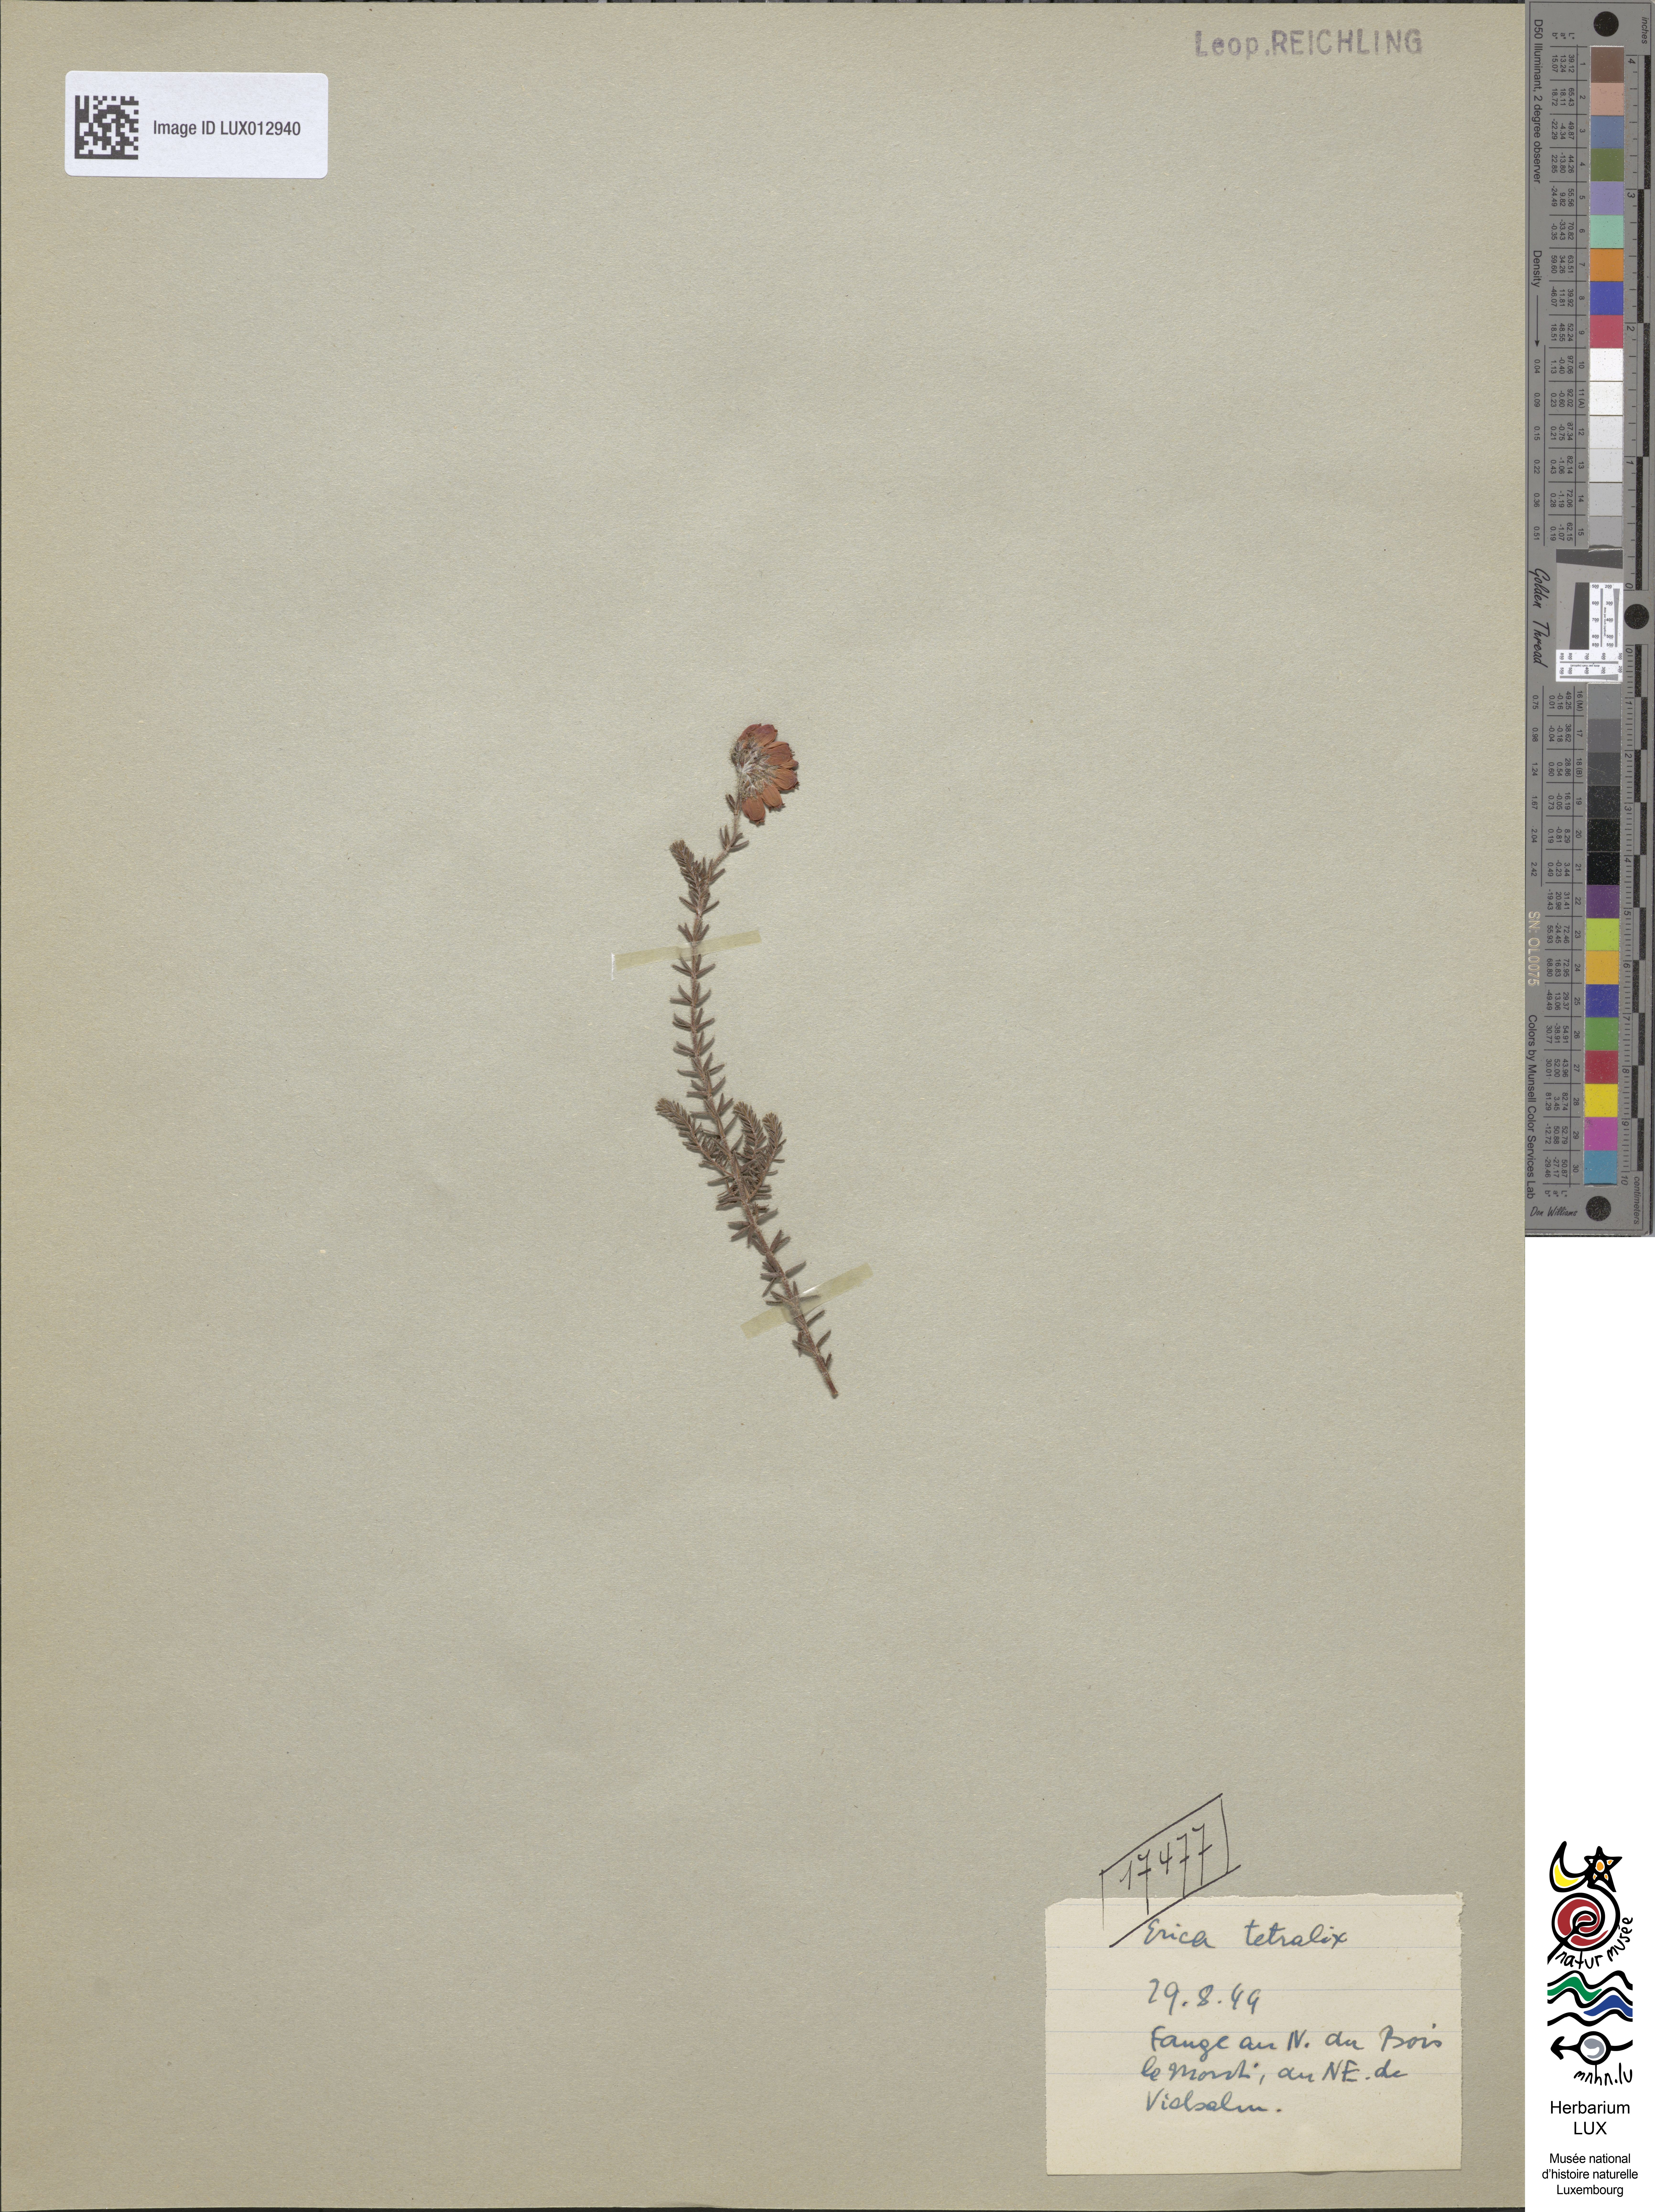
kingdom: Plantae
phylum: Tracheophyta
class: Magnoliopsida
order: Ericales
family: Ericaceae
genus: Erica
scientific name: Erica tetralix
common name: Cross-leaved heath
